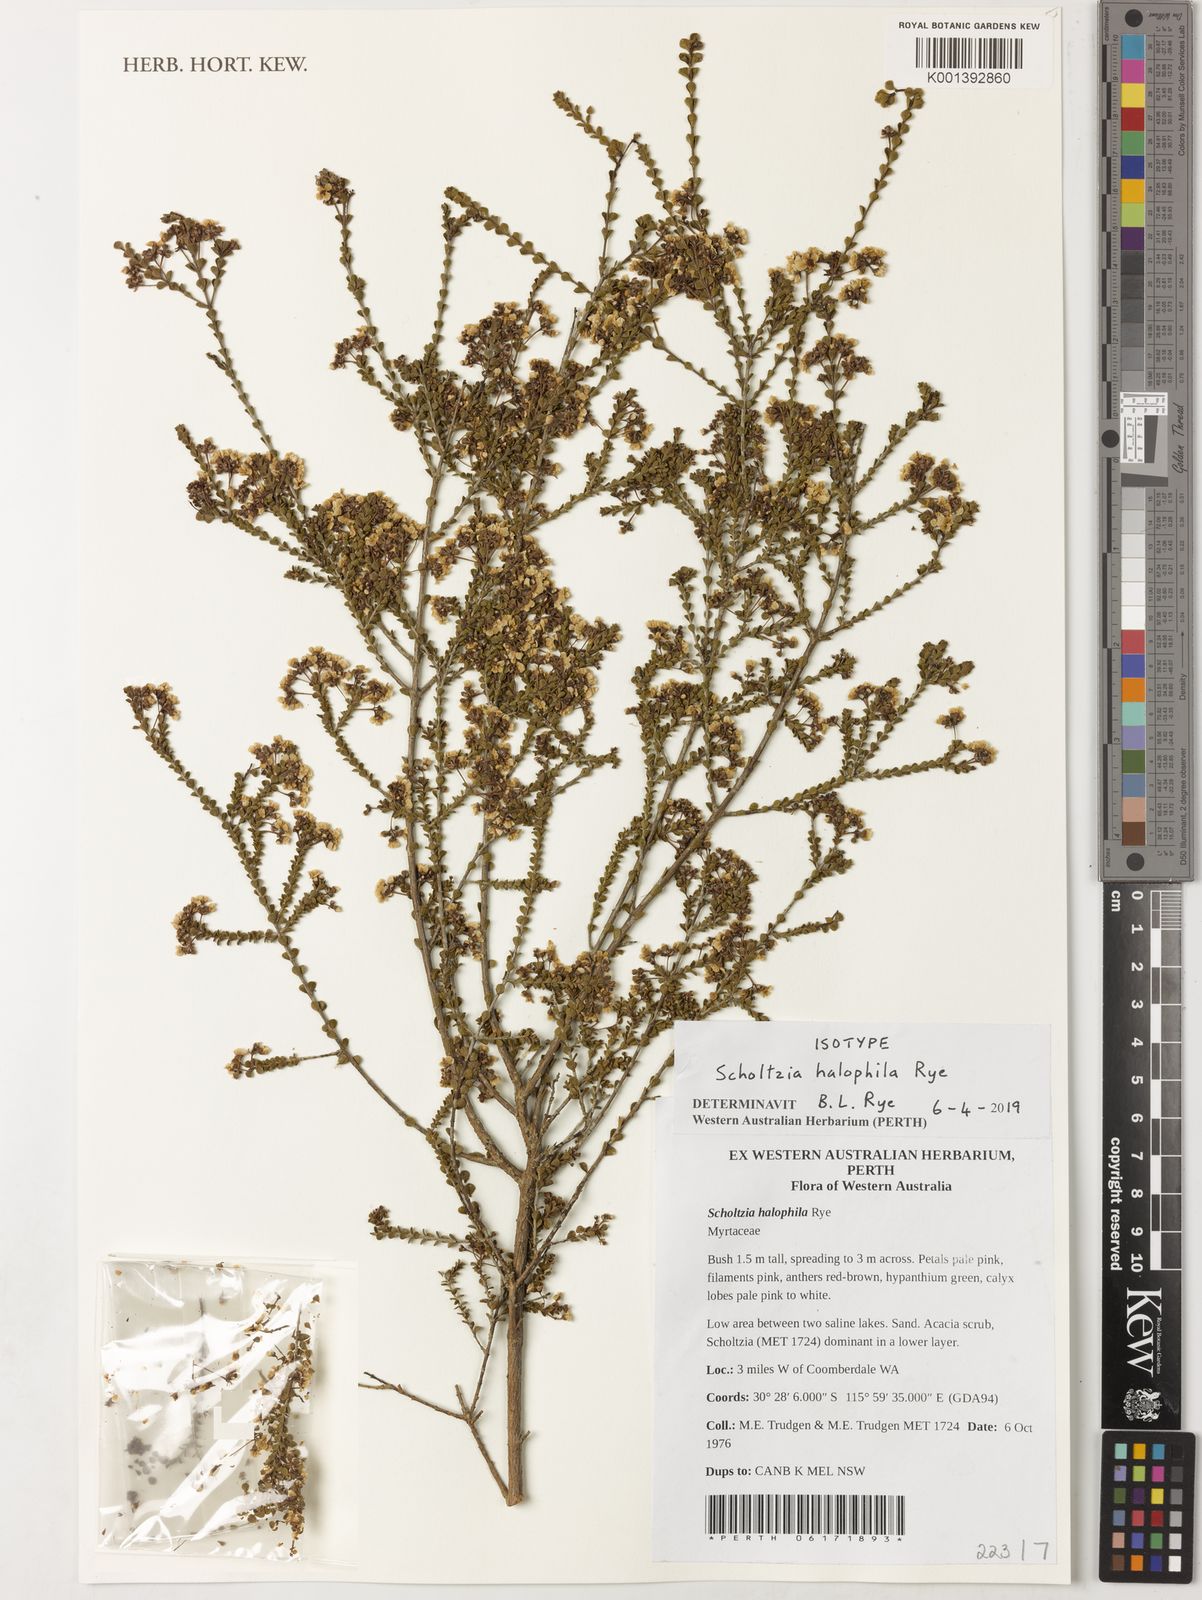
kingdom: Plantae
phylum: Tracheophyta
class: Magnoliopsida
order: Myrtales
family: Myrtaceae
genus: Scholtzia
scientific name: Scholtzia
